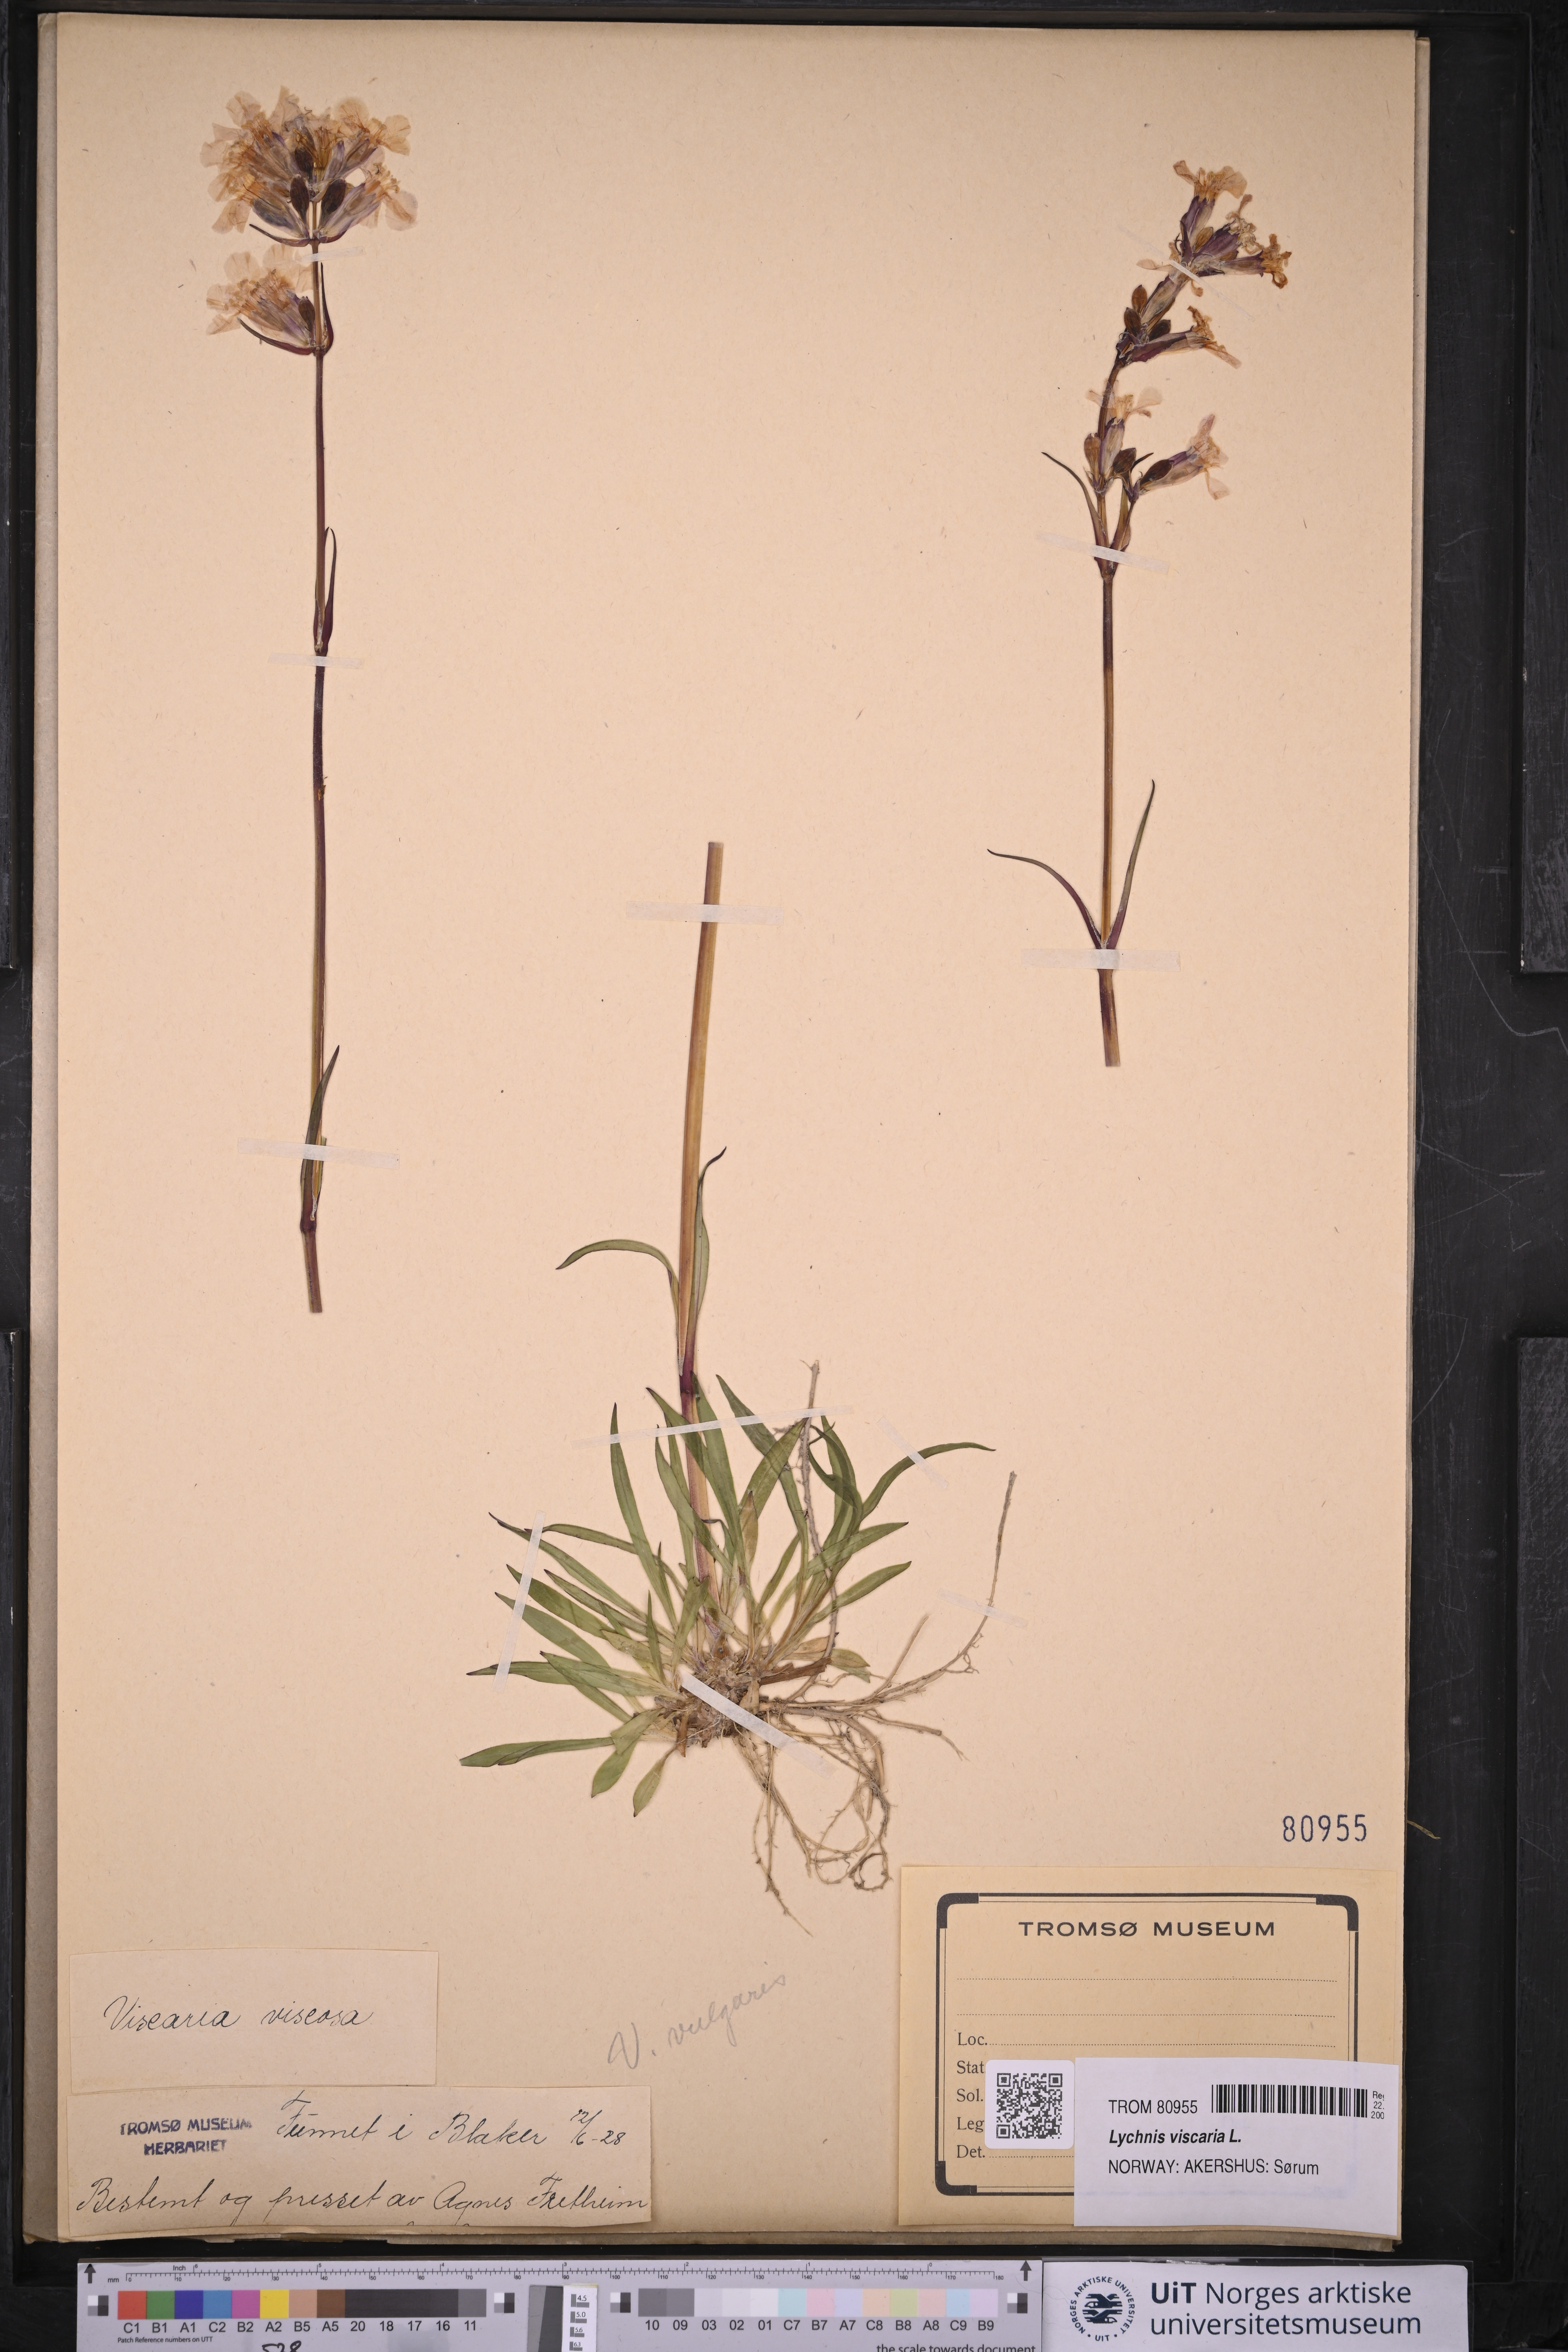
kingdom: Plantae
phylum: Tracheophyta
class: Magnoliopsida
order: Caryophyllales
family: Caryophyllaceae
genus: Viscaria
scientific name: Viscaria vulgaris
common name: Clammy campion
